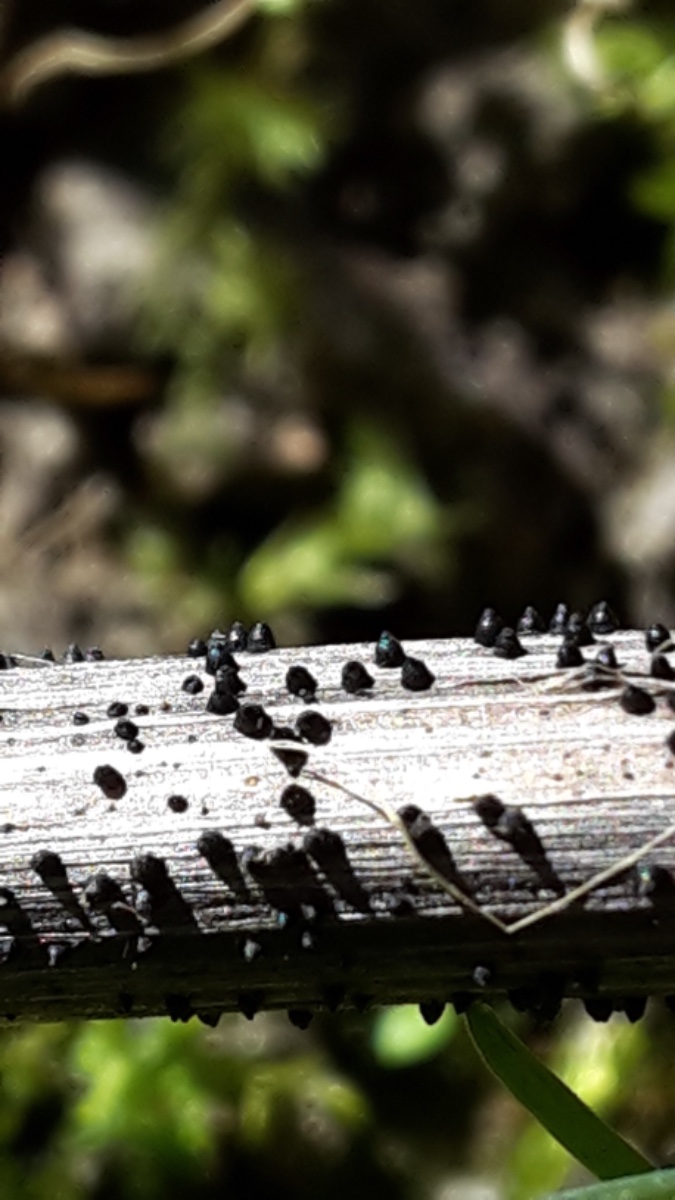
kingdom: Fungi
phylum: Ascomycota
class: Dothideomycetes
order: Pleosporales
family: Leptosphaeriaceae
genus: Leptosphaeria
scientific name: Leptosphaeria acuta
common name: spids kulkegle
